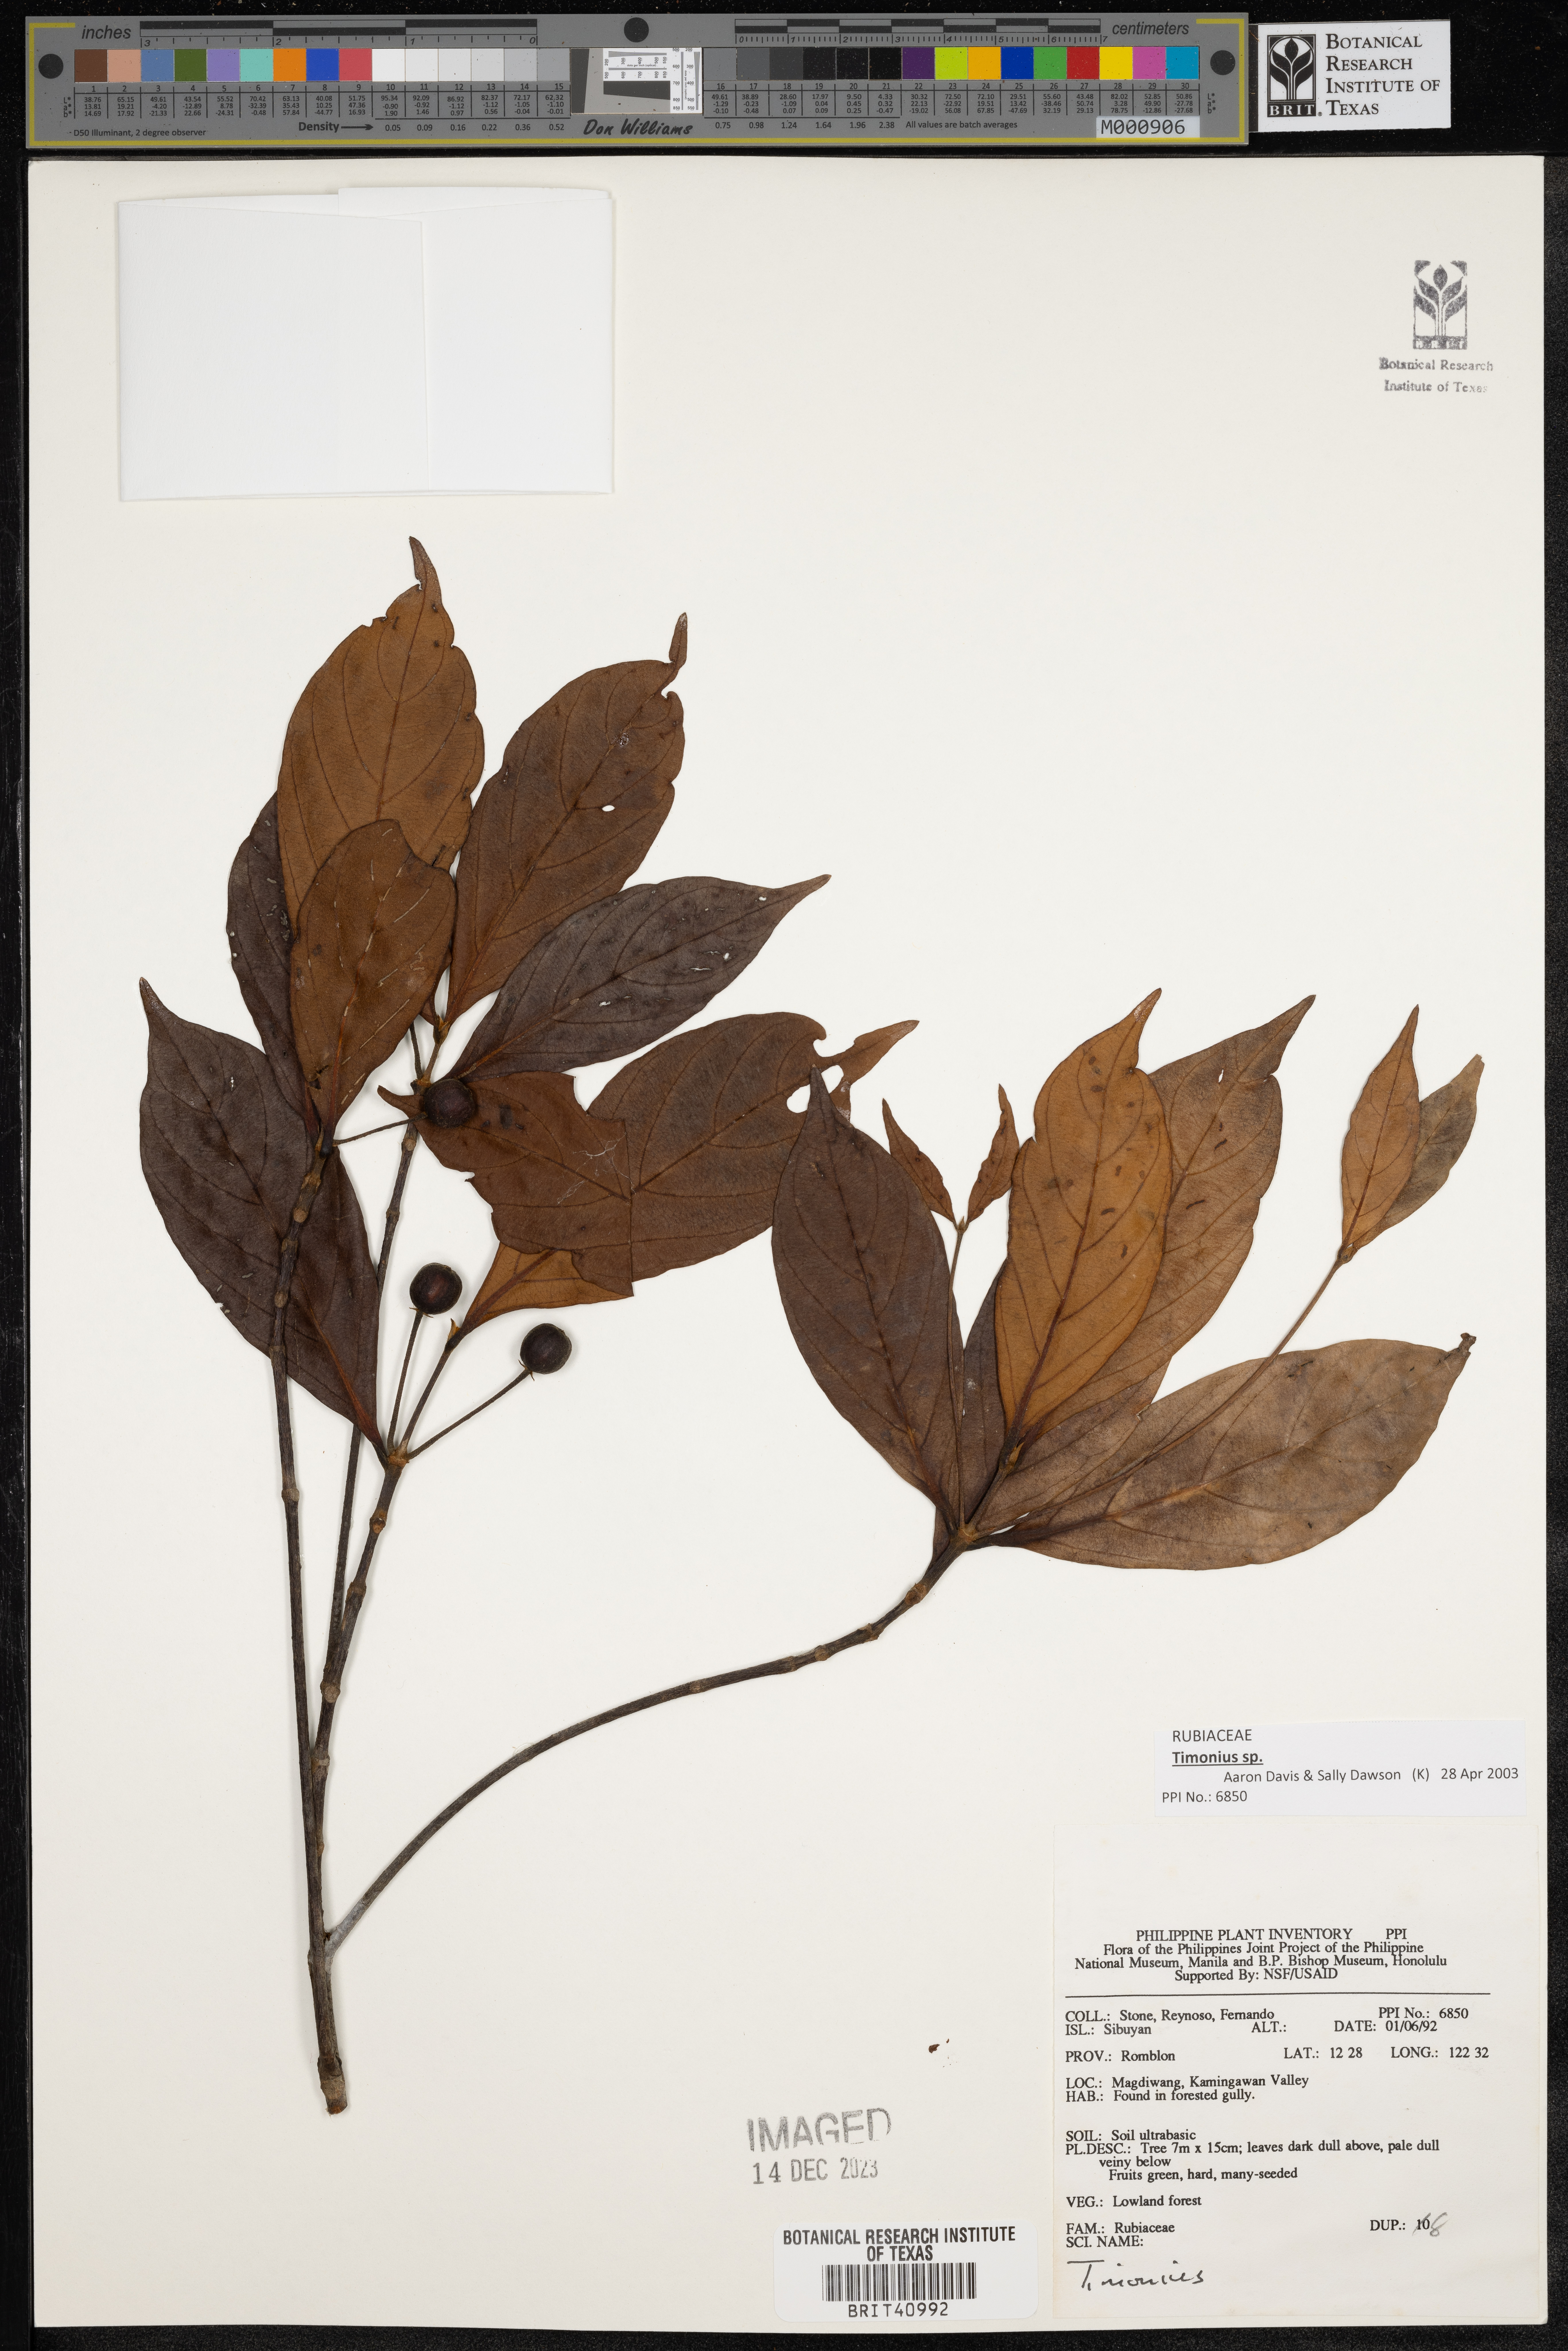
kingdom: Plantae
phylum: Tracheophyta
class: Magnoliopsida
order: Gentianales
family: Rubiaceae
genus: Timonius
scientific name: Timonius
